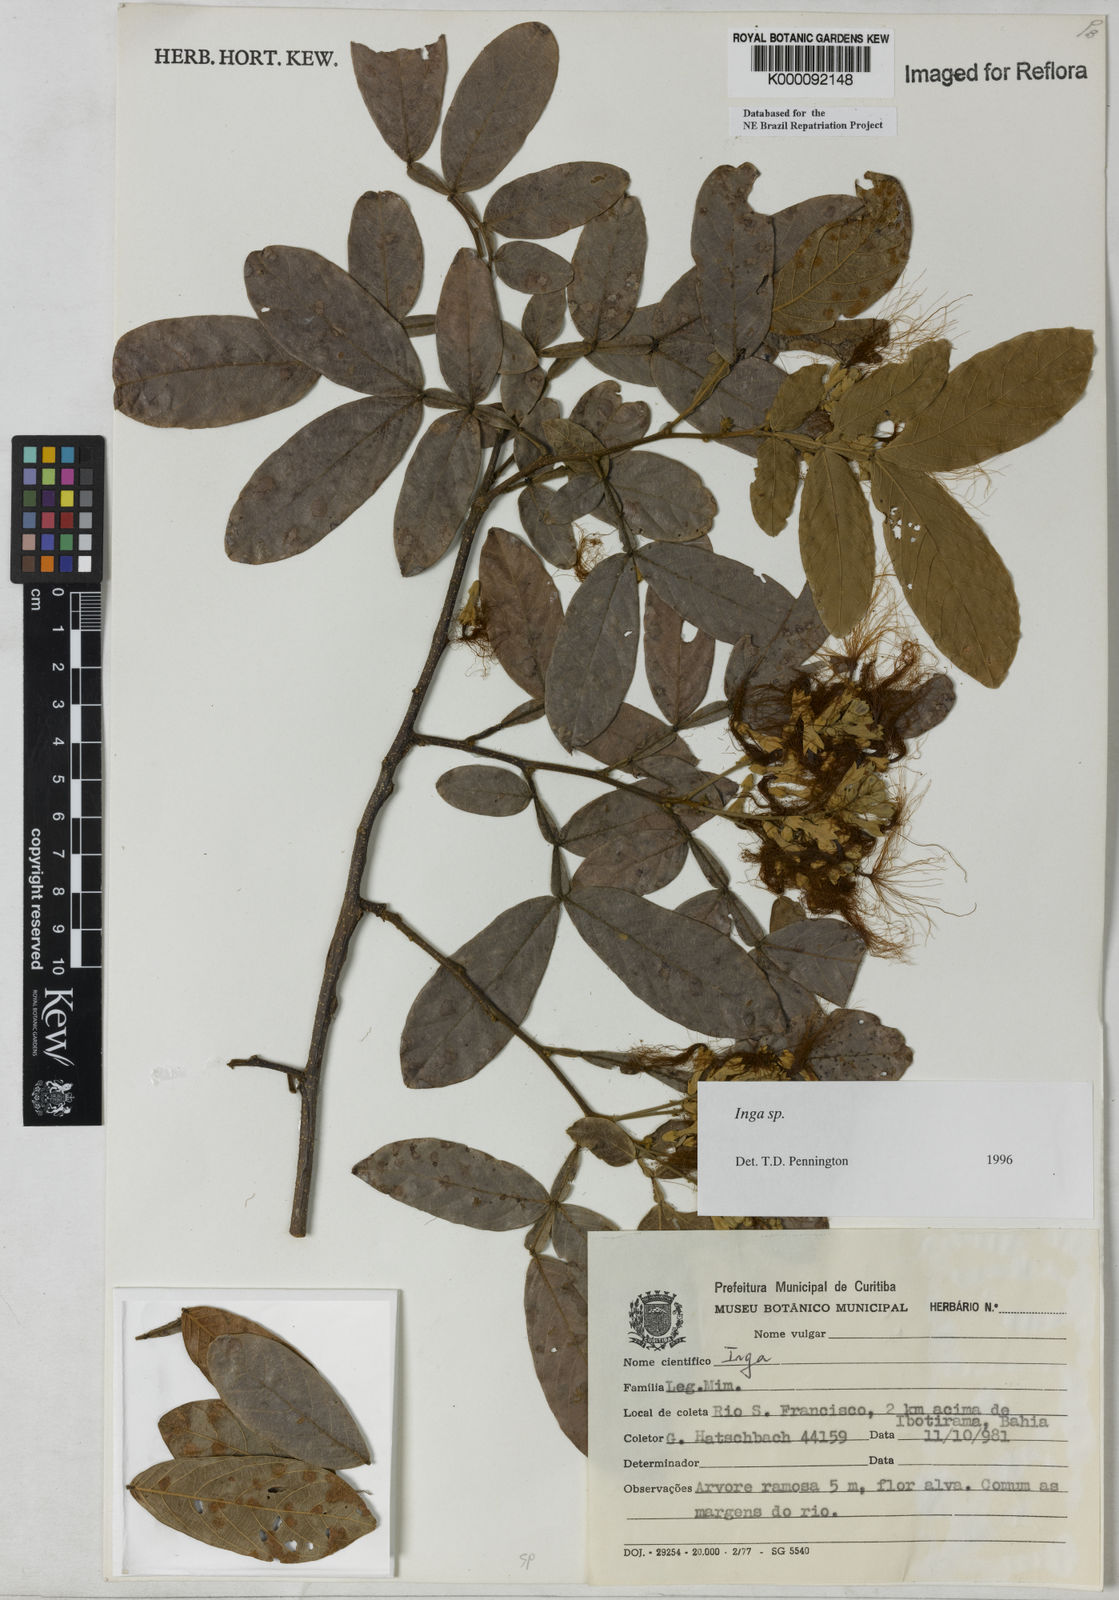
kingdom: Plantae
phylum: Tracheophyta
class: Magnoliopsida
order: Fabales
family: Fabaceae
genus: Inga
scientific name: Inga
